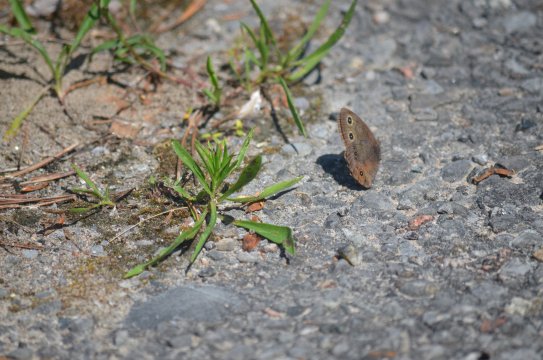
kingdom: Animalia
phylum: Arthropoda
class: Insecta
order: Lepidoptera
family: Nymphalidae
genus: Cercyonis
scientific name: Cercyonis pegala
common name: Common Wood-Nymph
